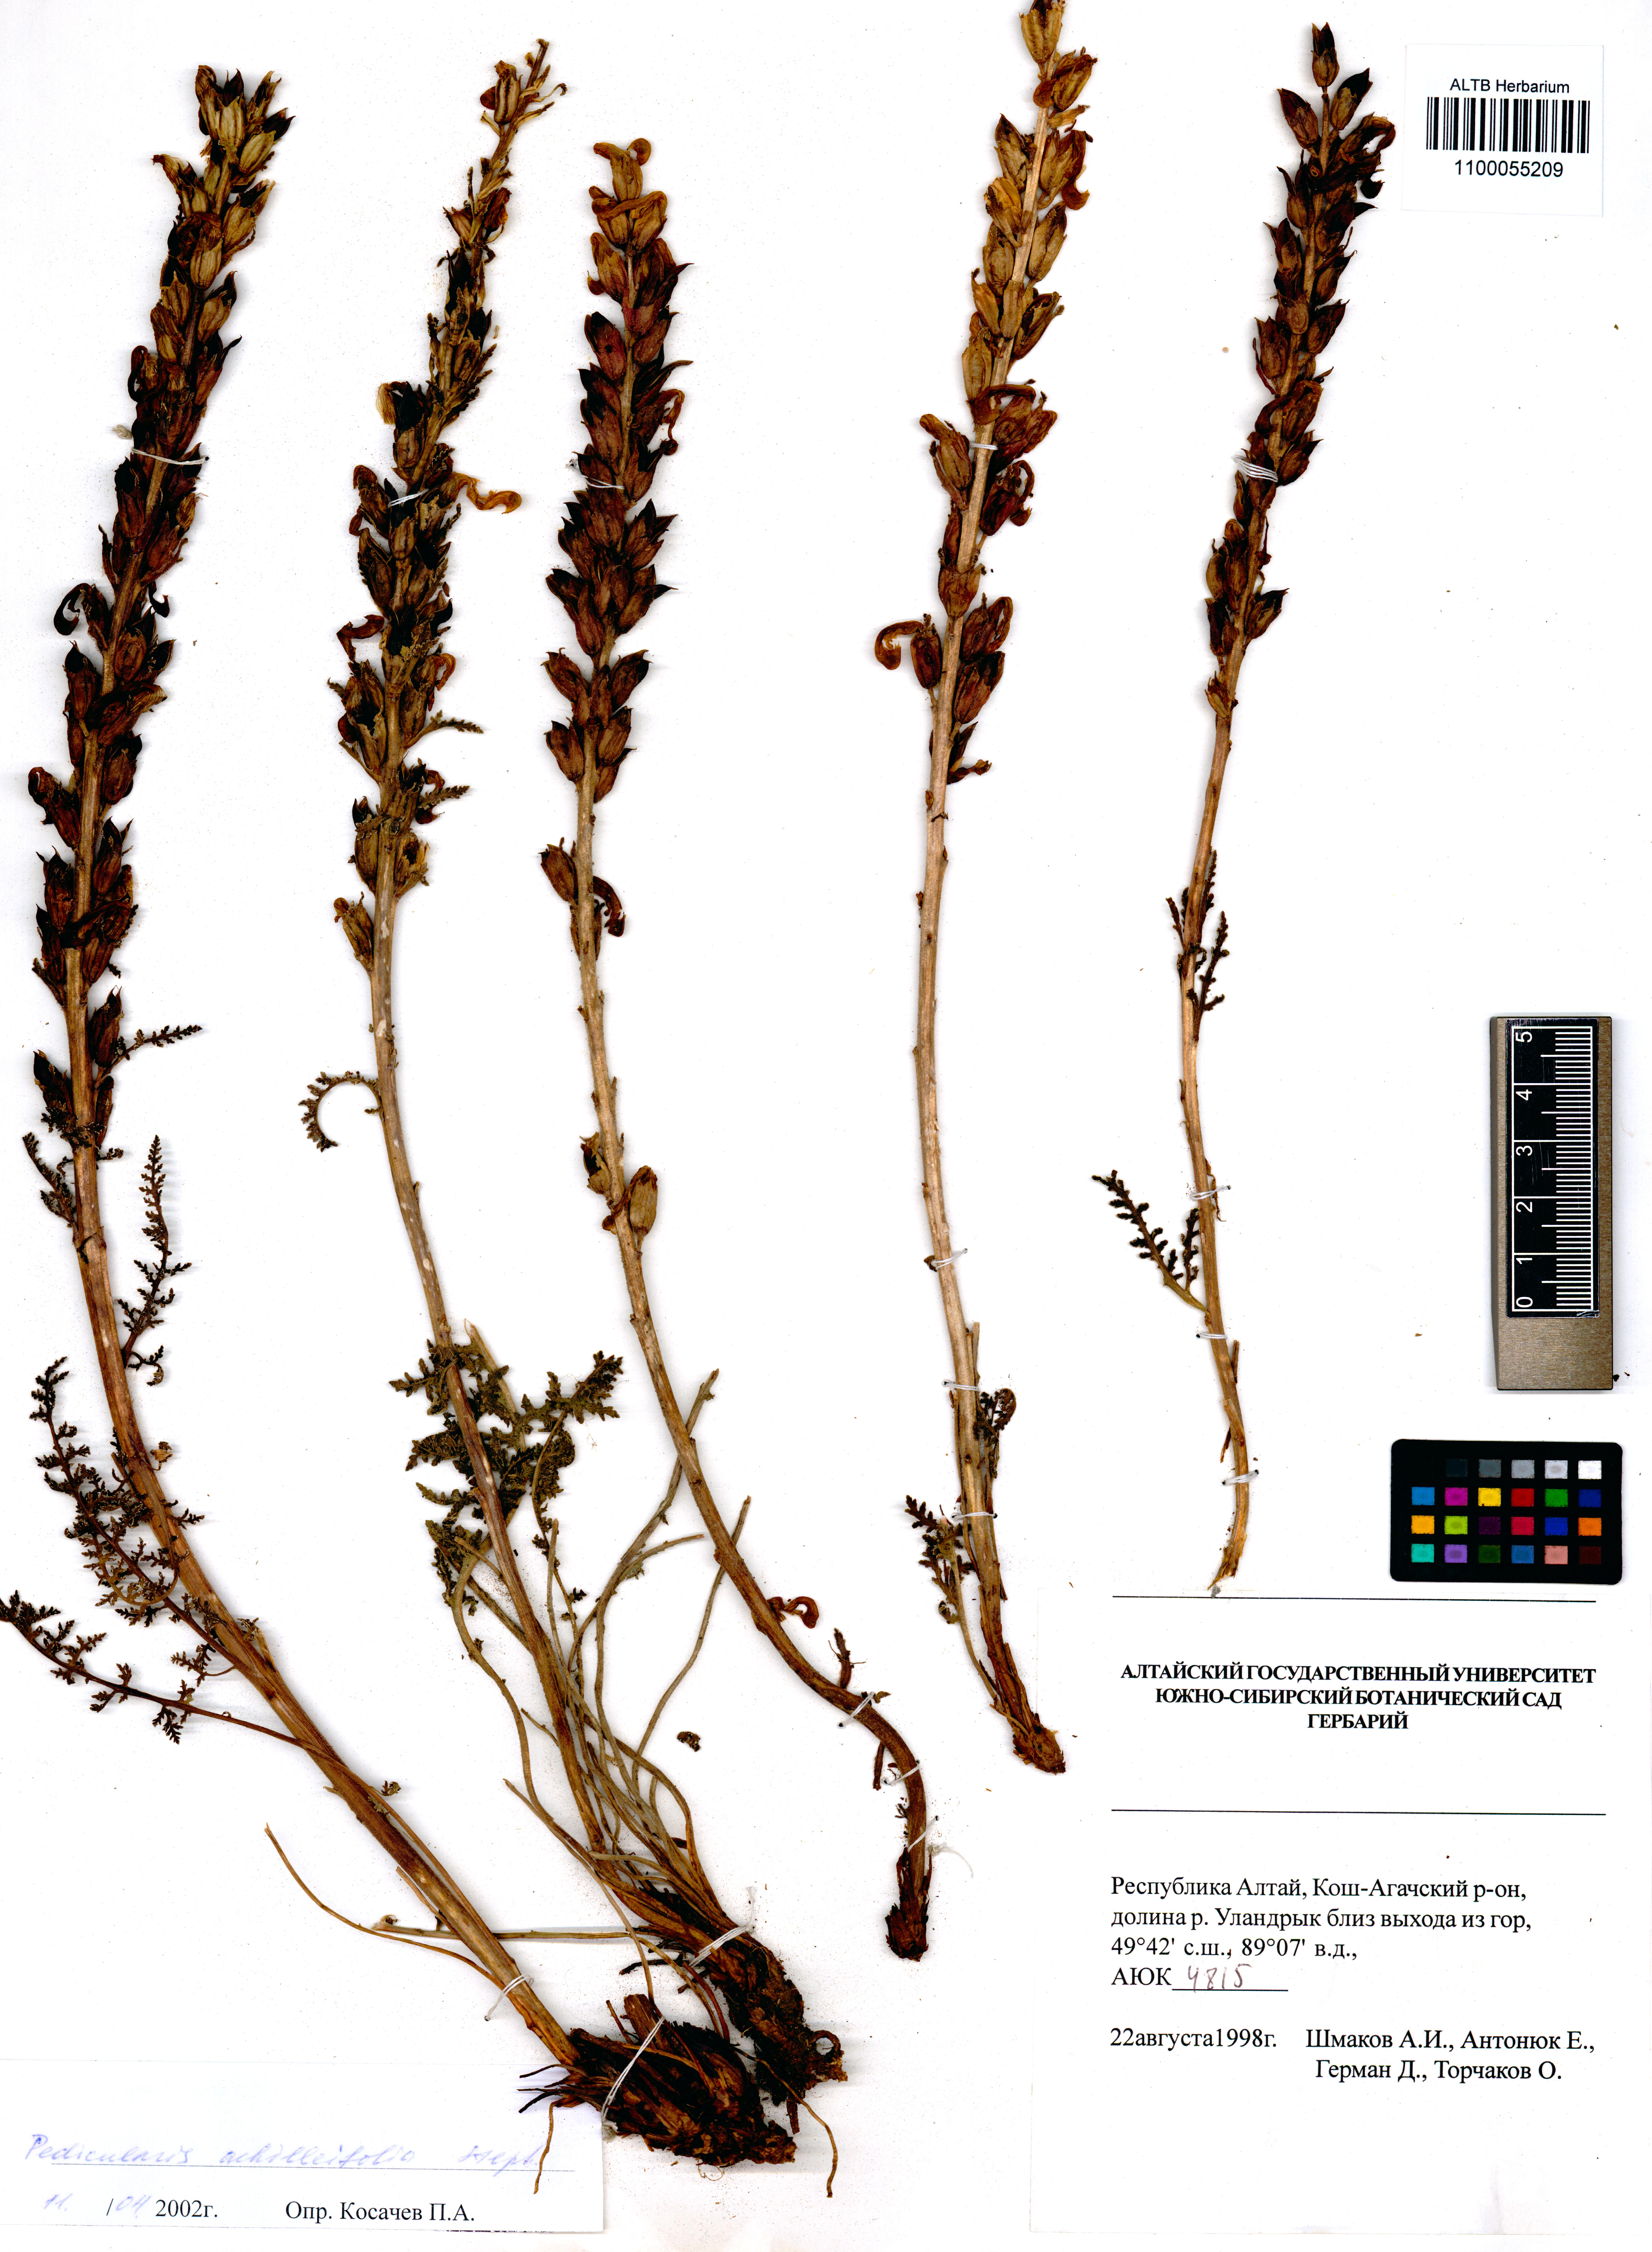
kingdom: Plantae
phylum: Tracheophyta
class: Magnoliopsida
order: Lamiales
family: Orobanchaceae
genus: Pedicularis
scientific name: Pedicularis achilleifolia
